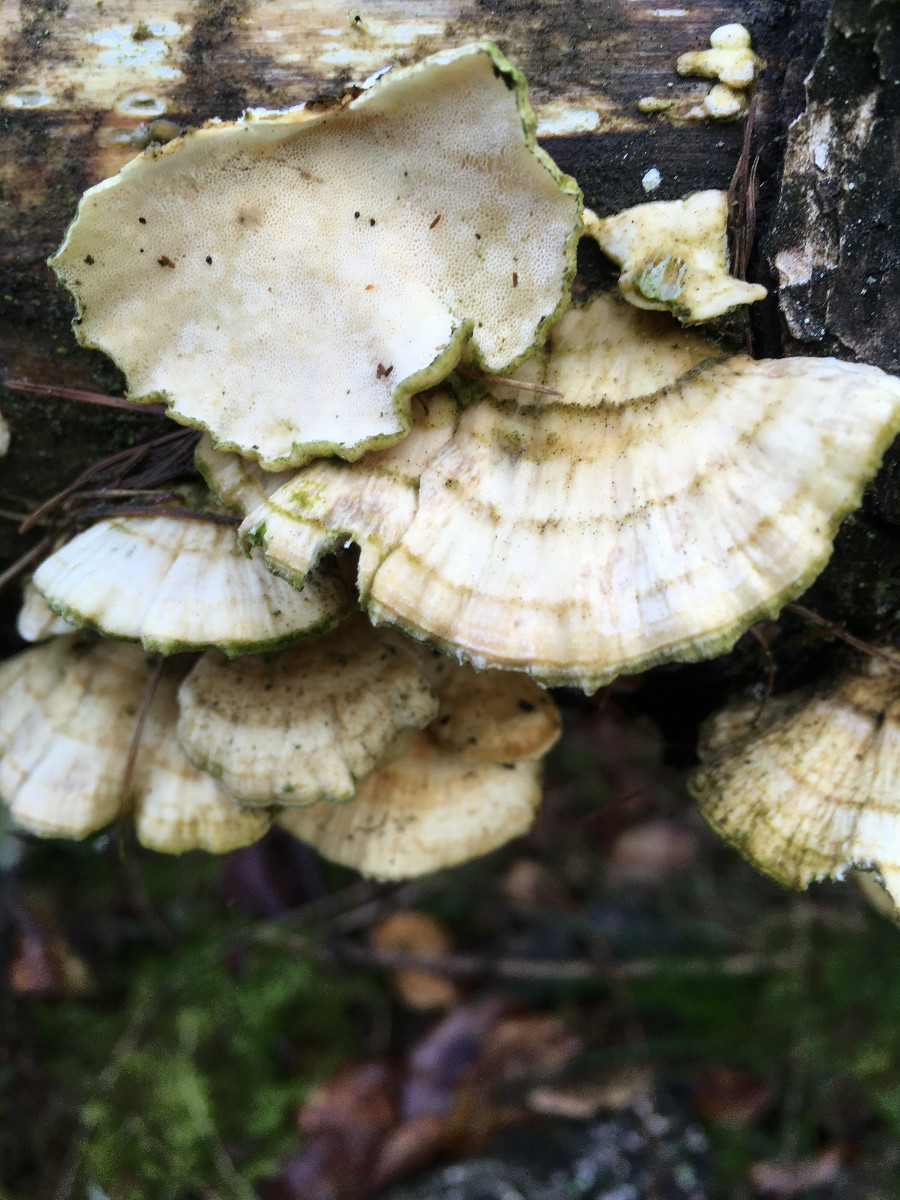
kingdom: Fungi
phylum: Basidiomycota
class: Agaricomycetes
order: Polyporales
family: Polyporaceae
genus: Trametes
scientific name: Trametes
